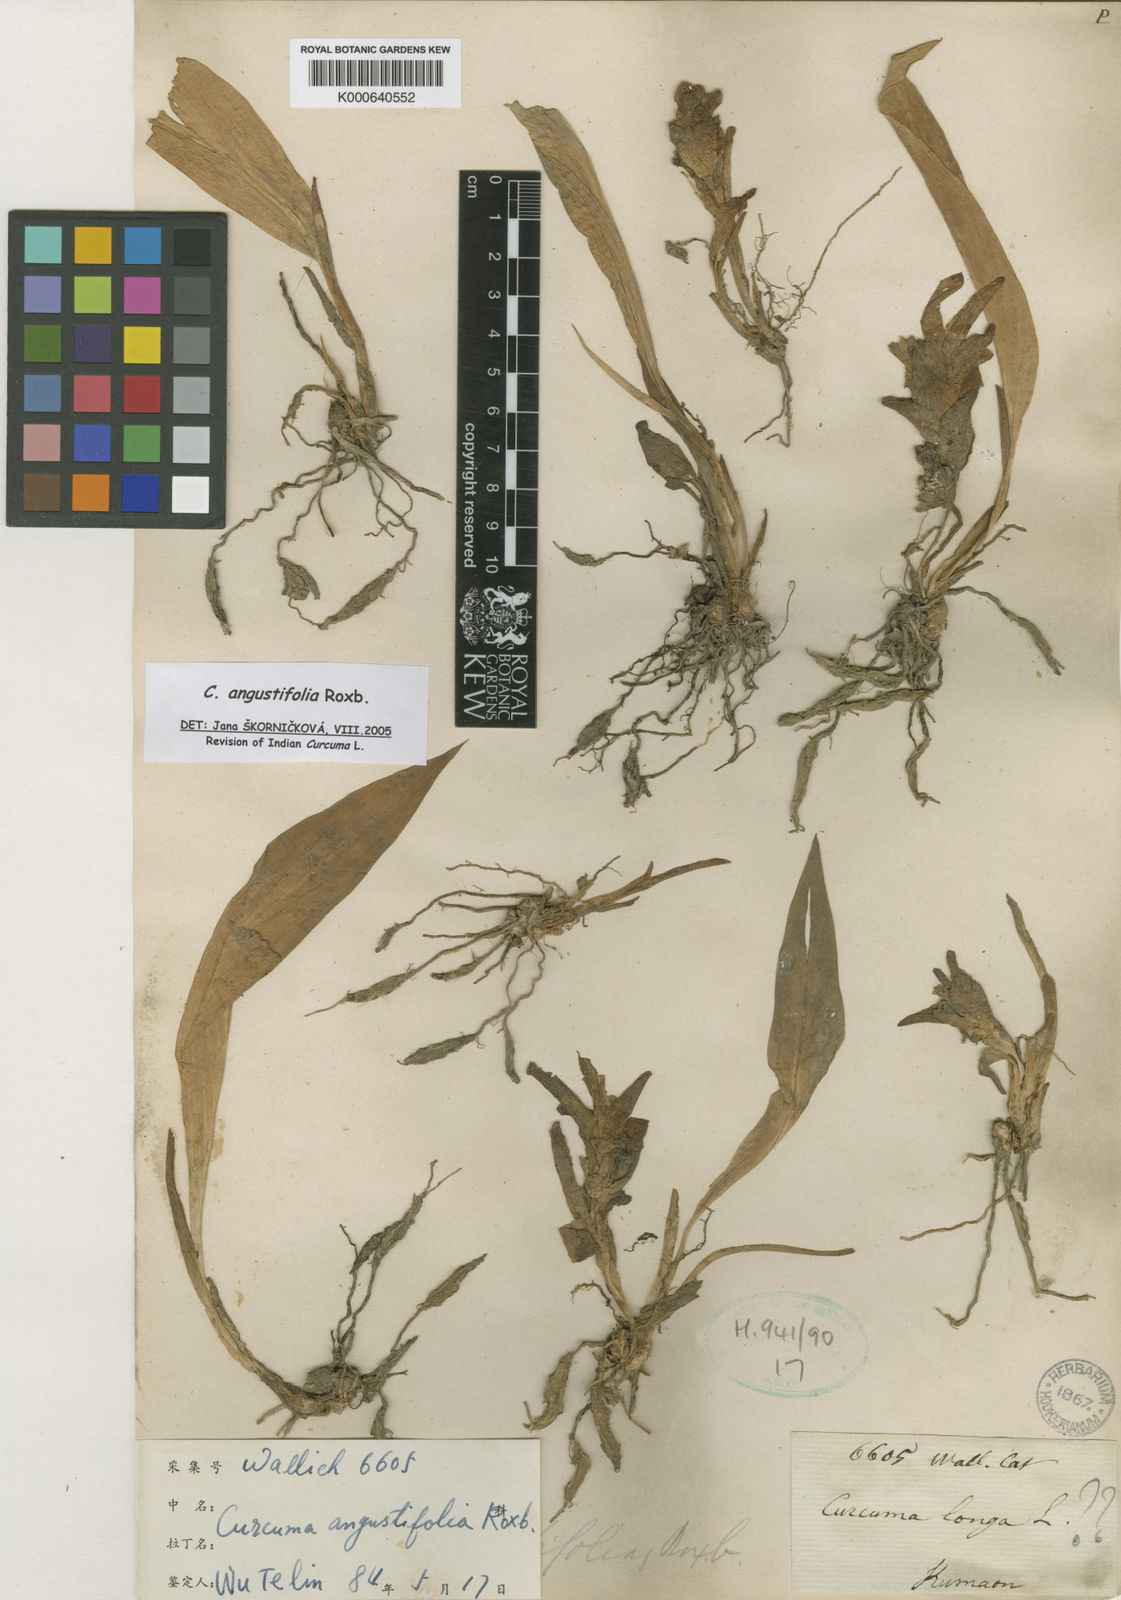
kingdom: Plantae
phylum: Tracheophyta
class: Liliopsida
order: Zingiberales
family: Zingiberaceae
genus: Curcuma
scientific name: Curcuma angustifolia
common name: East indian arrowroot
